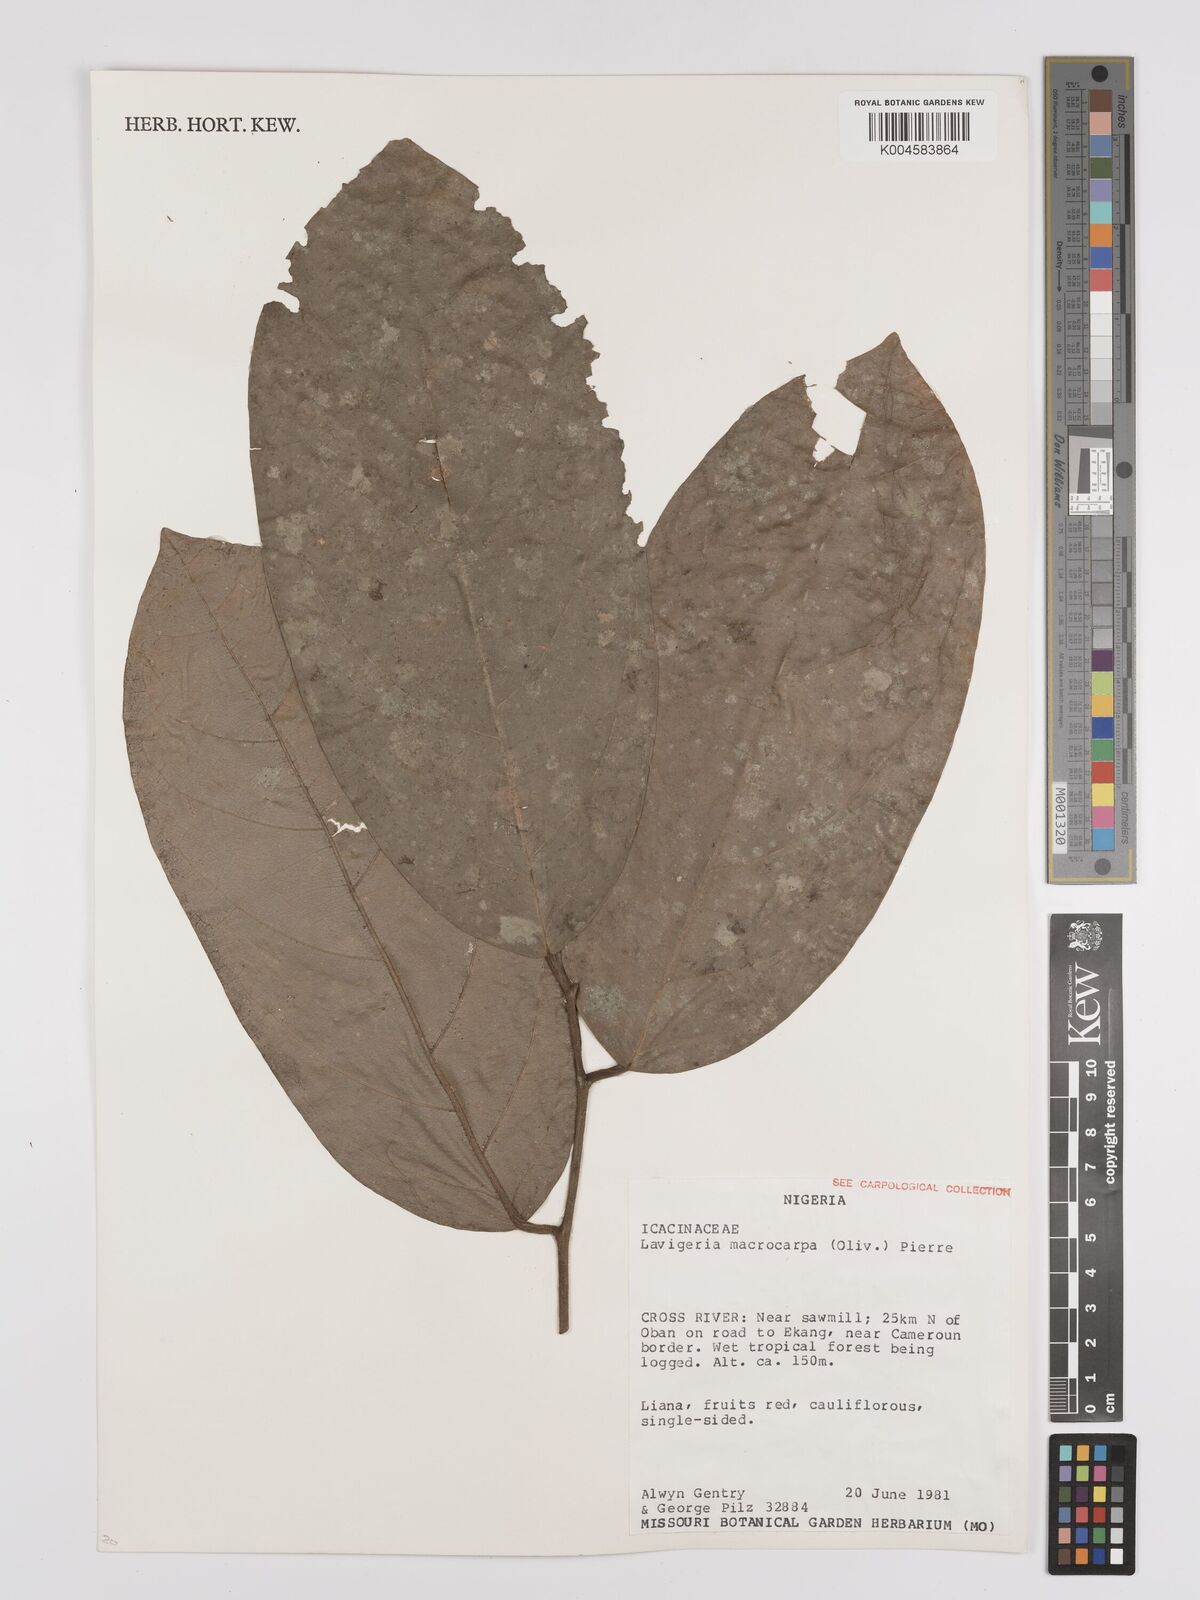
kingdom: Plantae
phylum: Tracheophyta
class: Magnoliopsida
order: Icacinales
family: Icacinaceae
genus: Lavigeria
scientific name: Lavigeria macrocarpa
